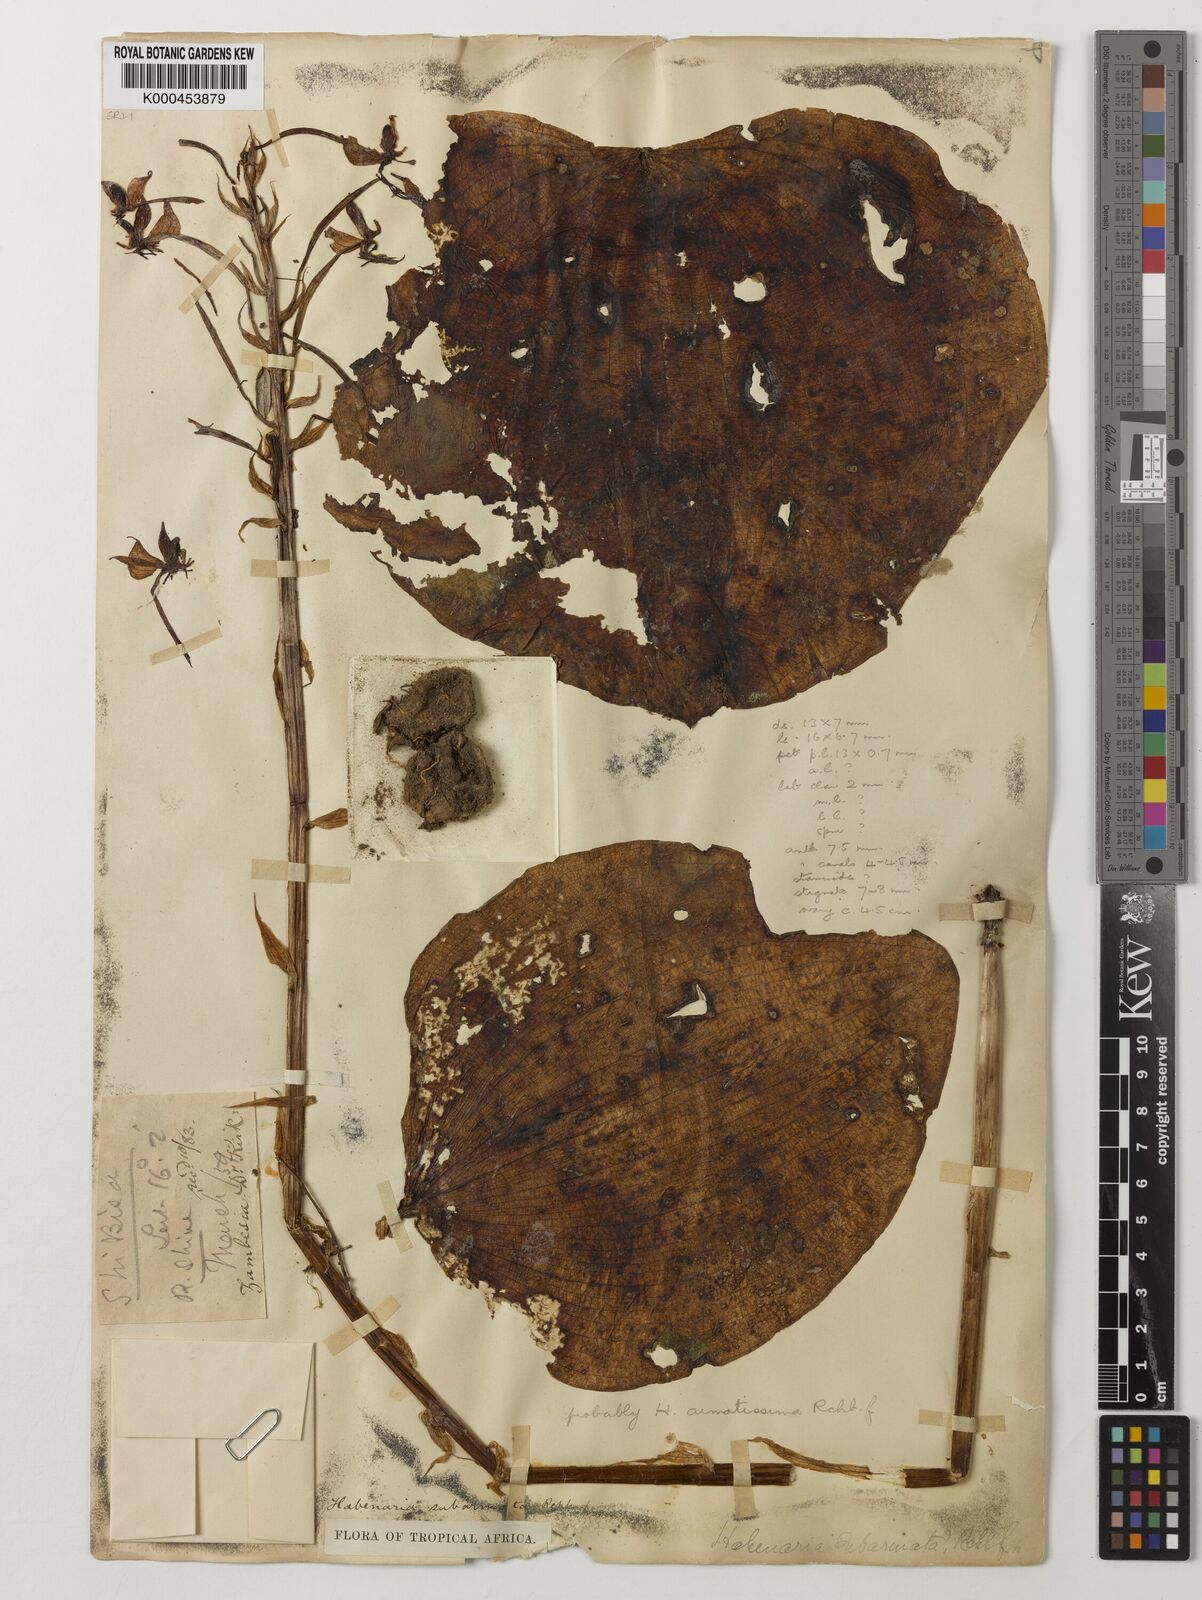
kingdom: Plantae
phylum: Tracheophyta
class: Liliopsida
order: Asparagales
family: Orchidaceae
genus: Habenaria
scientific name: Habenaria armatissima
